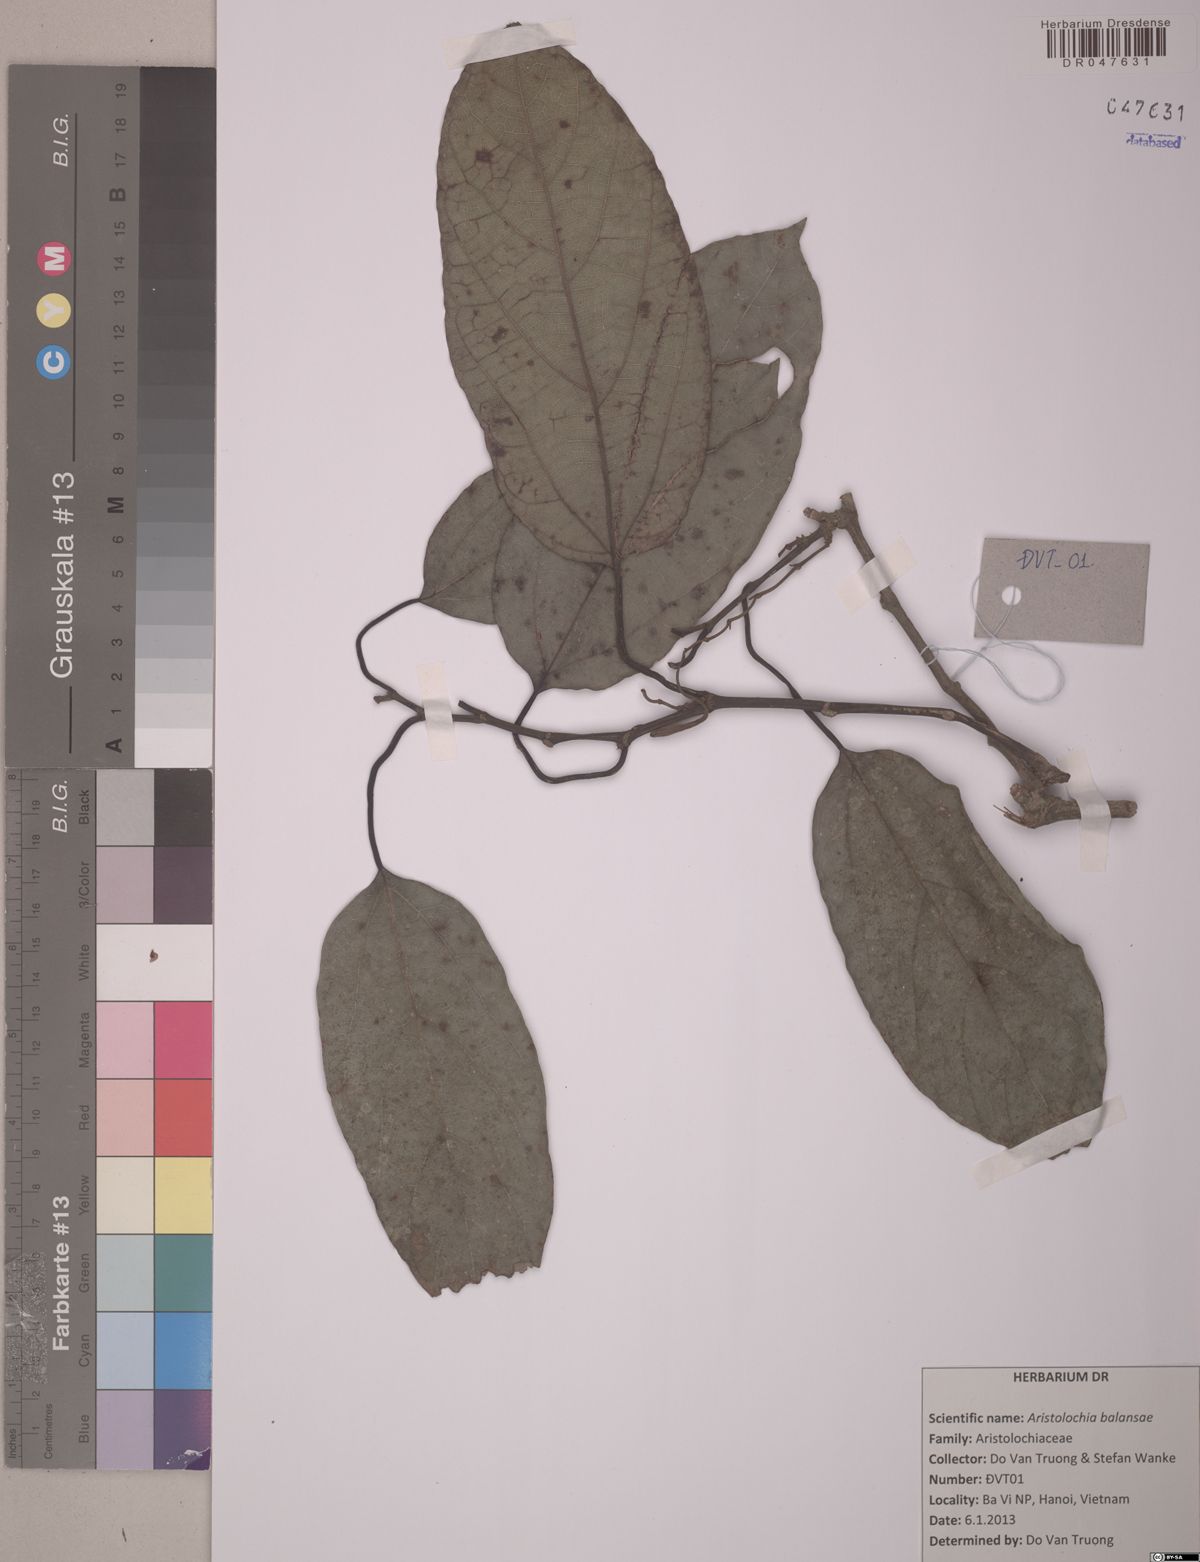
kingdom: Plantae
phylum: Tracheophyta
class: Magnoliopsida
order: Piperales
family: Aristolochiaceae
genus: Isotrema
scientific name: Isotrema balansae
